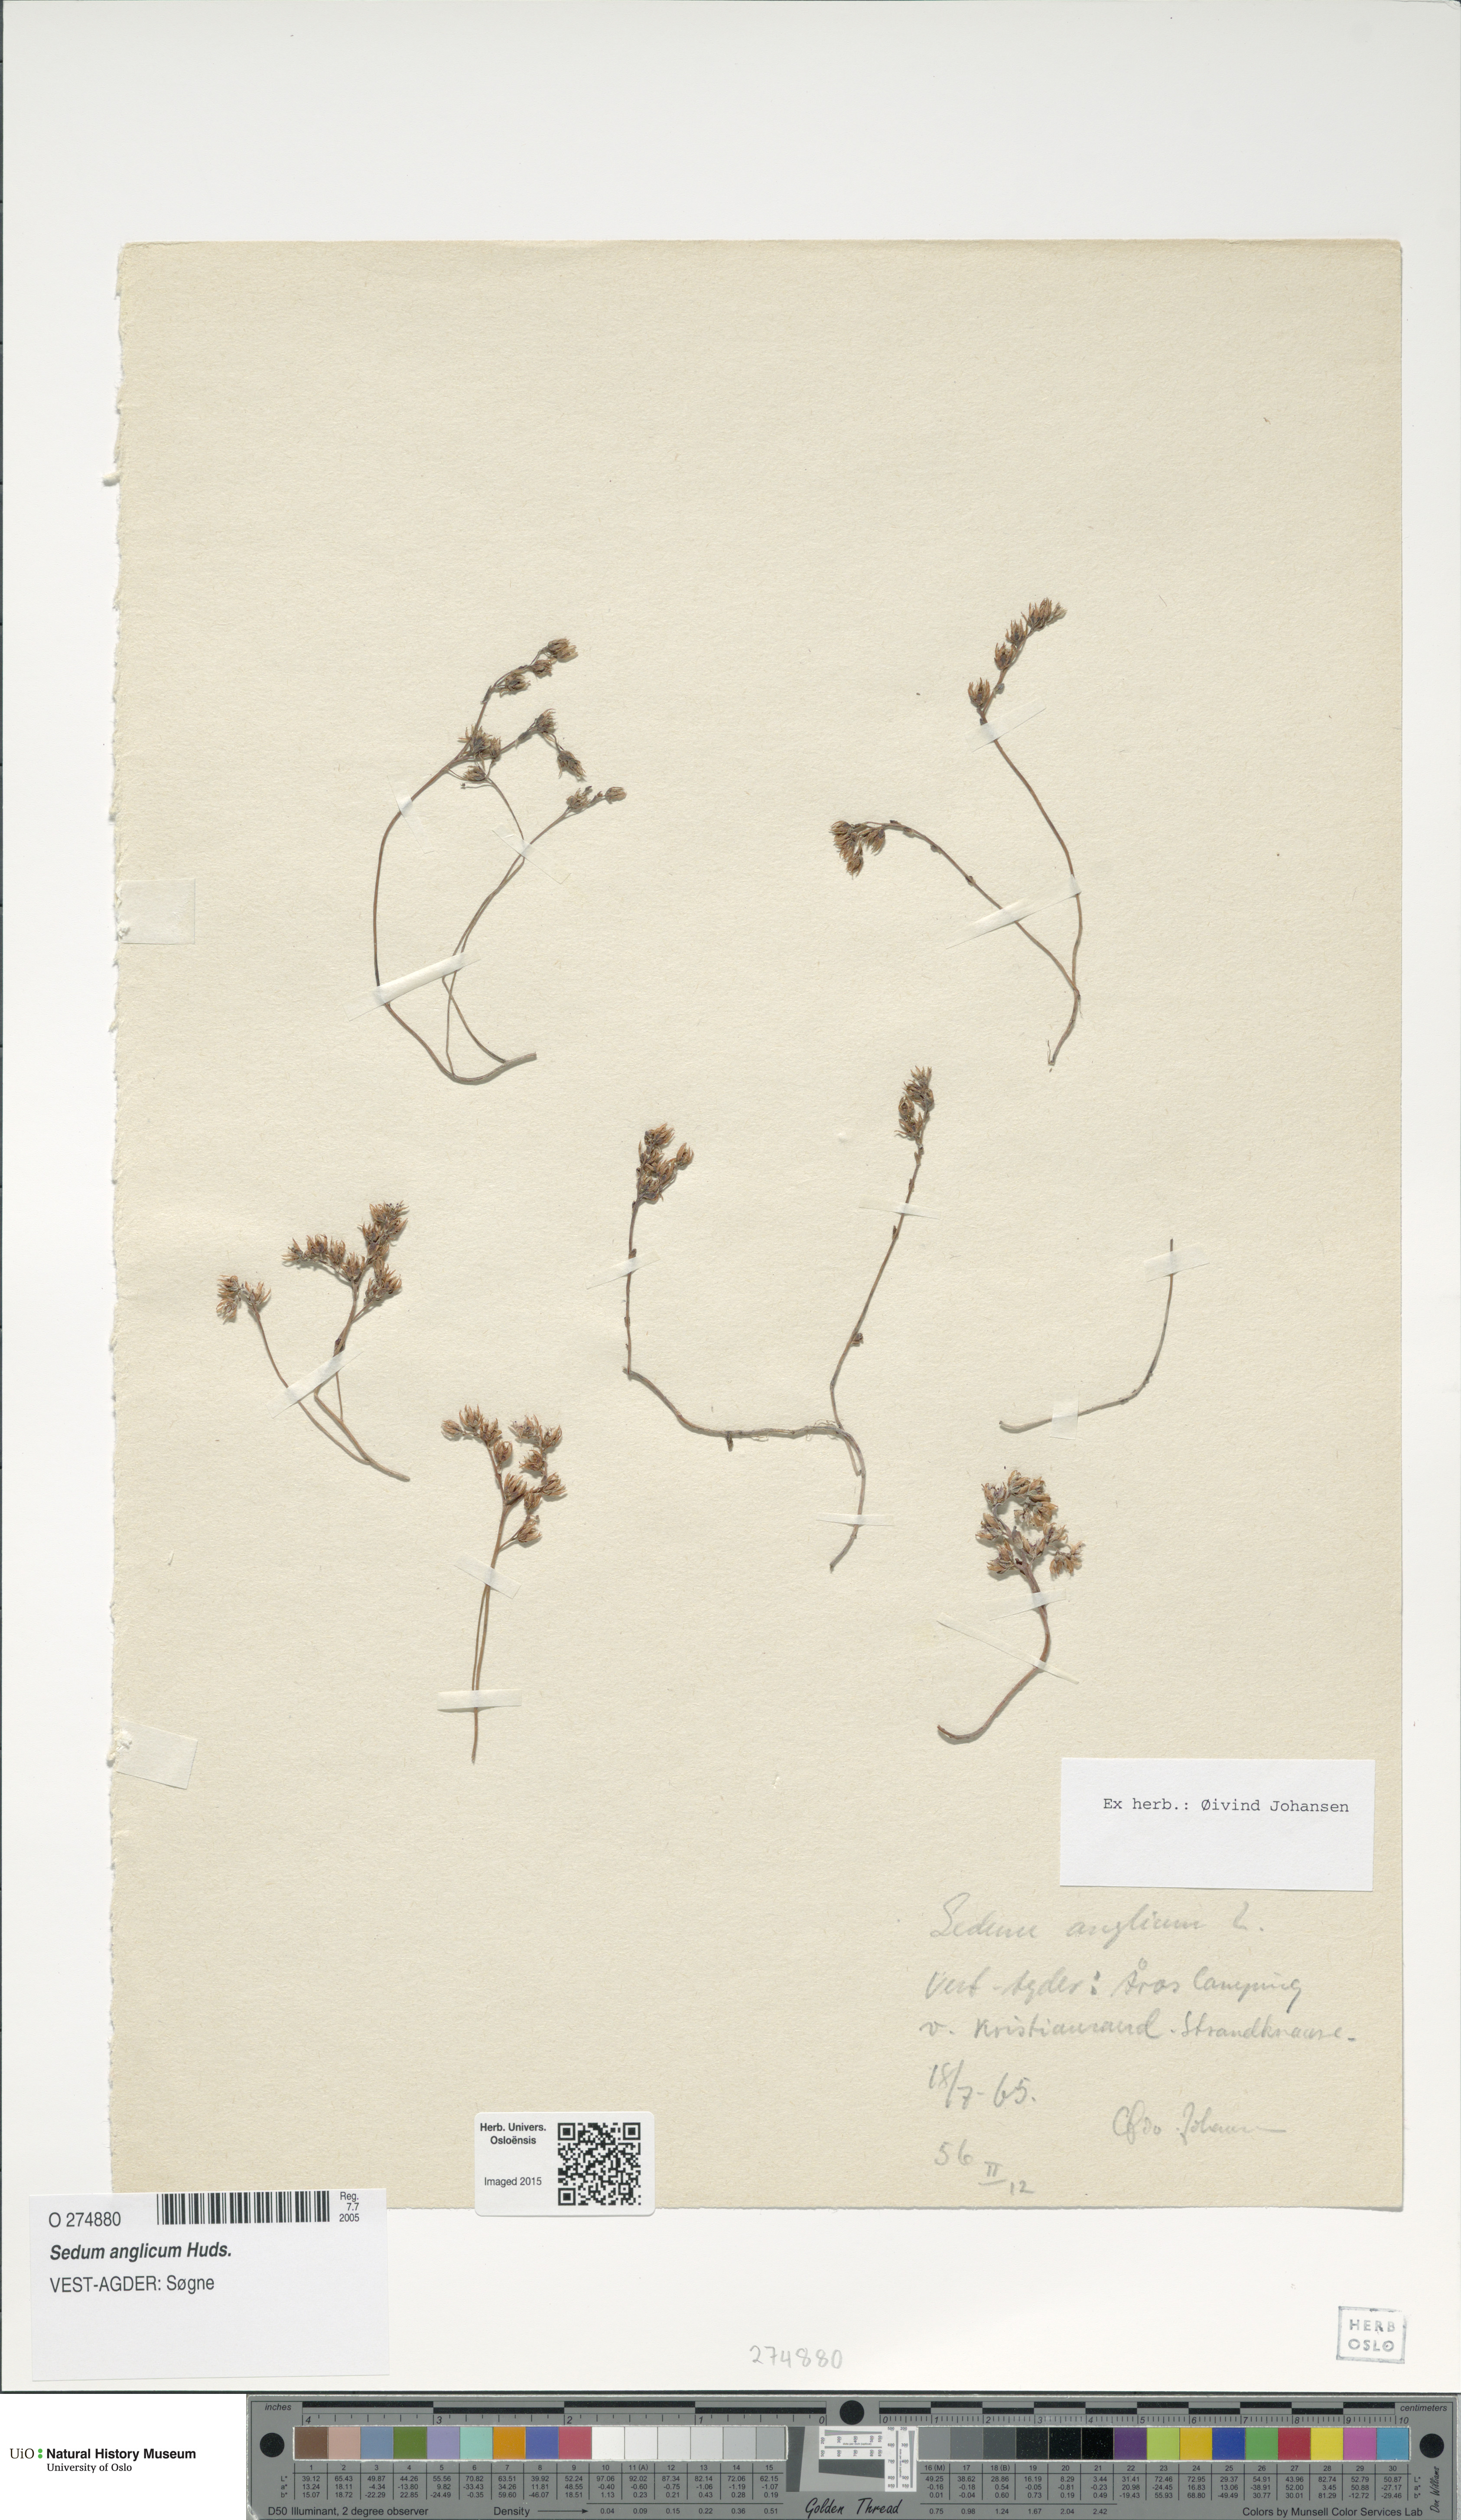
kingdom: Plantae
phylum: Tracheophyta
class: Magnoliopsida
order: Saxifragales
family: Crassulaceae
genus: Sedum
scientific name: Sedum anglicum
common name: English stonecrop
